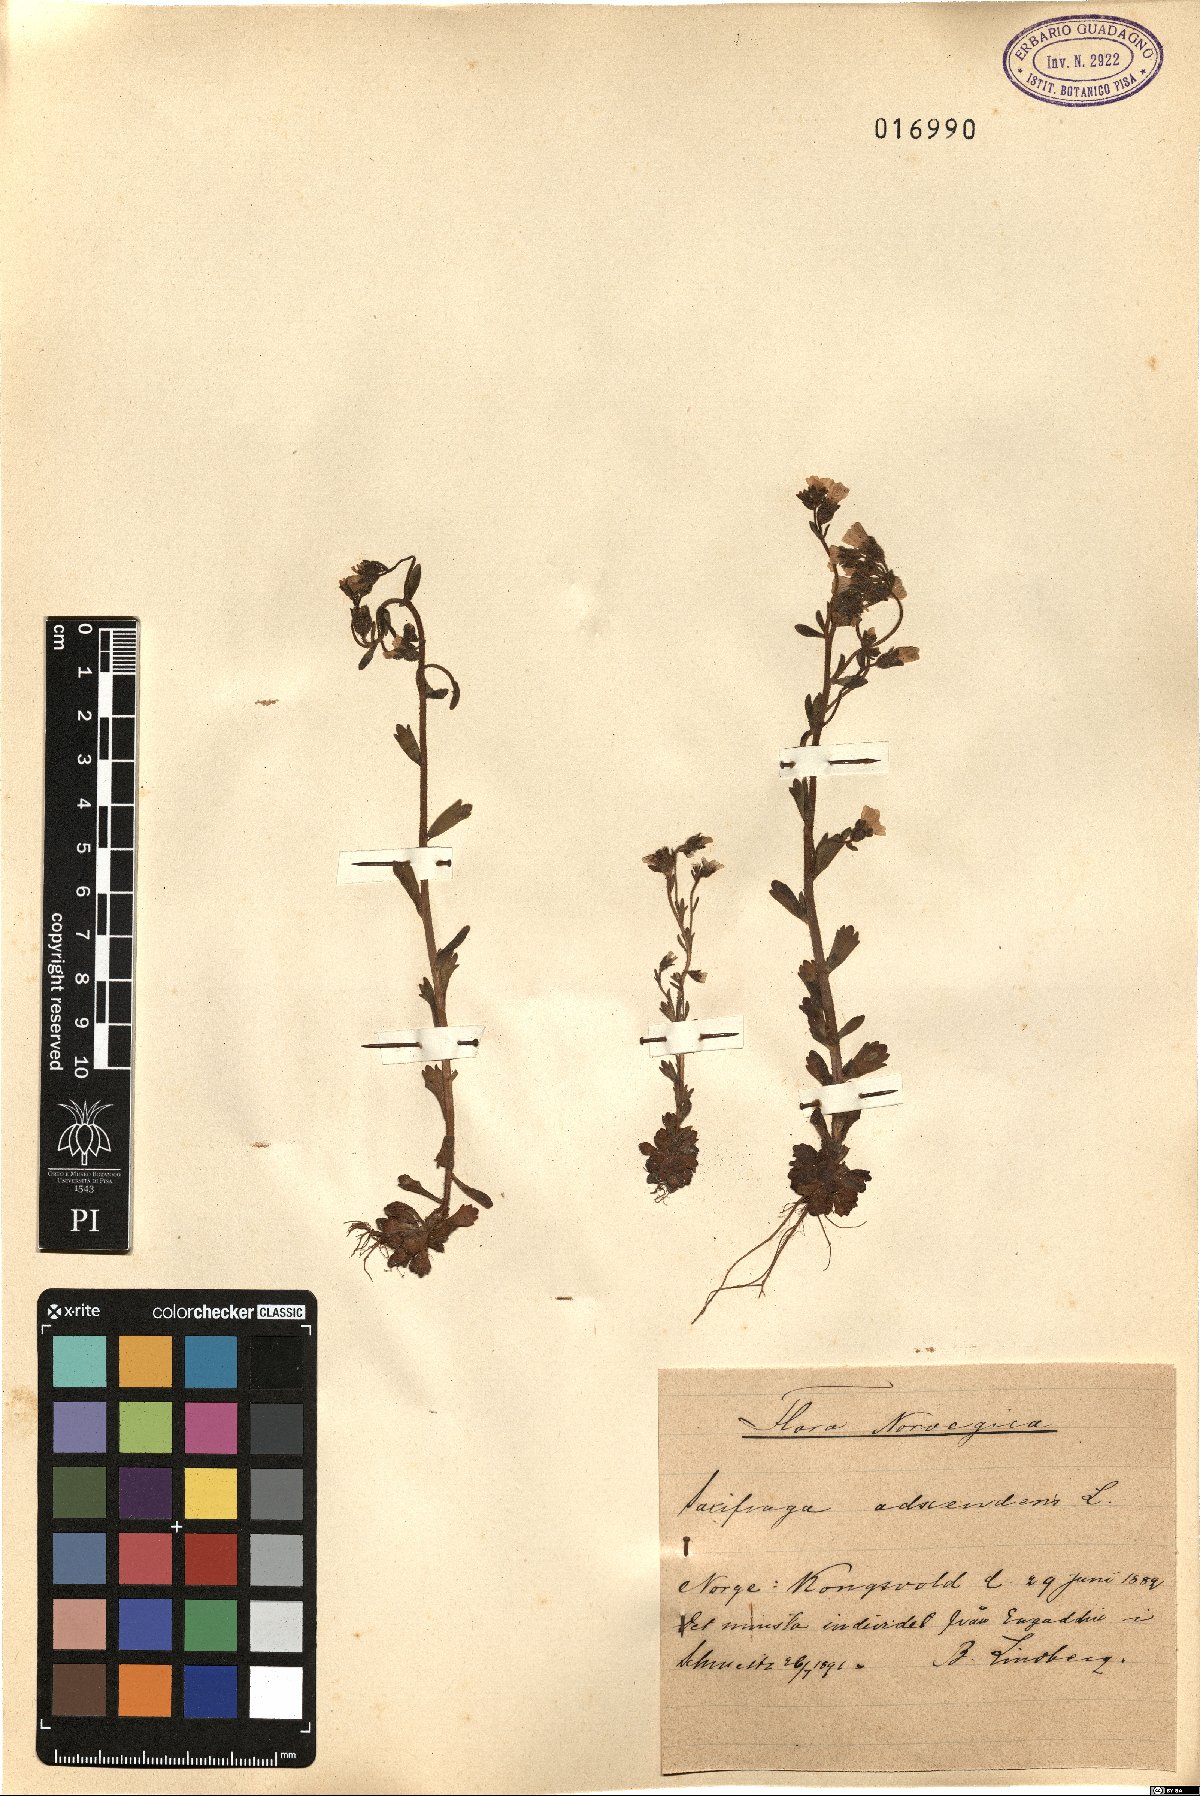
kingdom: Plantae
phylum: Tracheophyta
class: Magnoliopsida
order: Saxifragales
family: Saxifragaceae
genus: Saxifraga
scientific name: Saxifraga adscendens
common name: Ascending saxifrage
